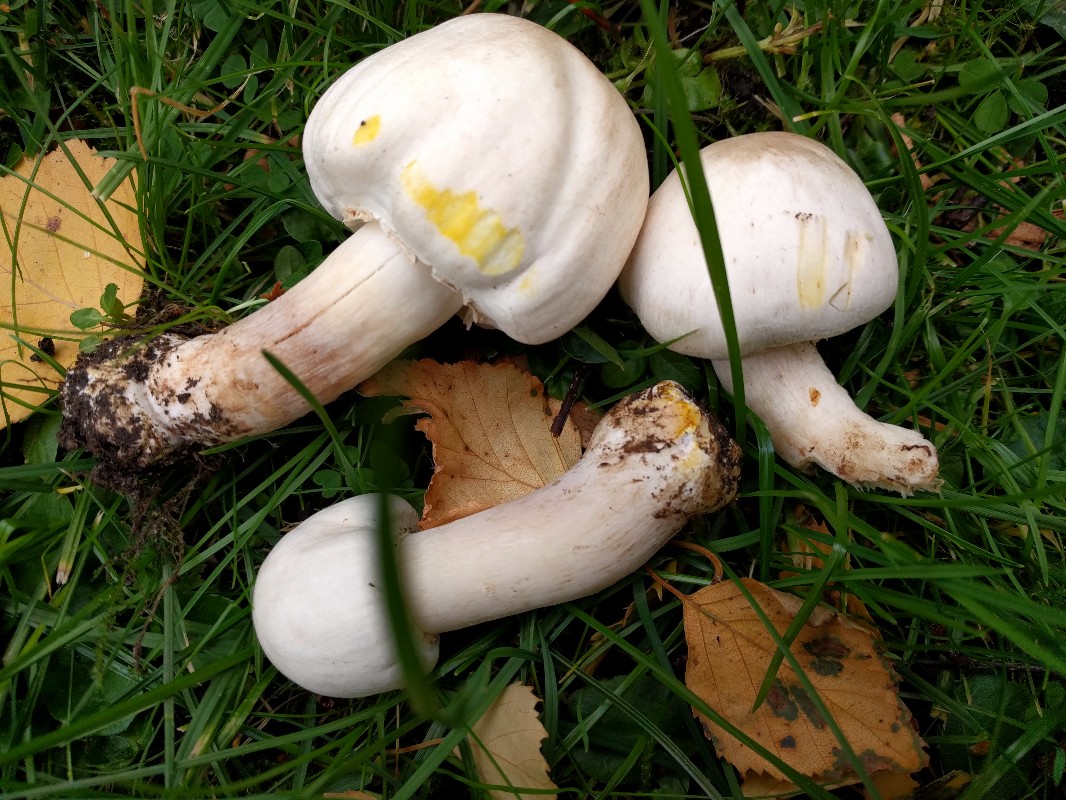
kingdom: Fungi
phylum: Basidiomycota
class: Agaricomycetes
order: Agaricales
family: Agaricaceae
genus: Agaricus
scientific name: Agaricus xanthodermus
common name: karbol-champignon
